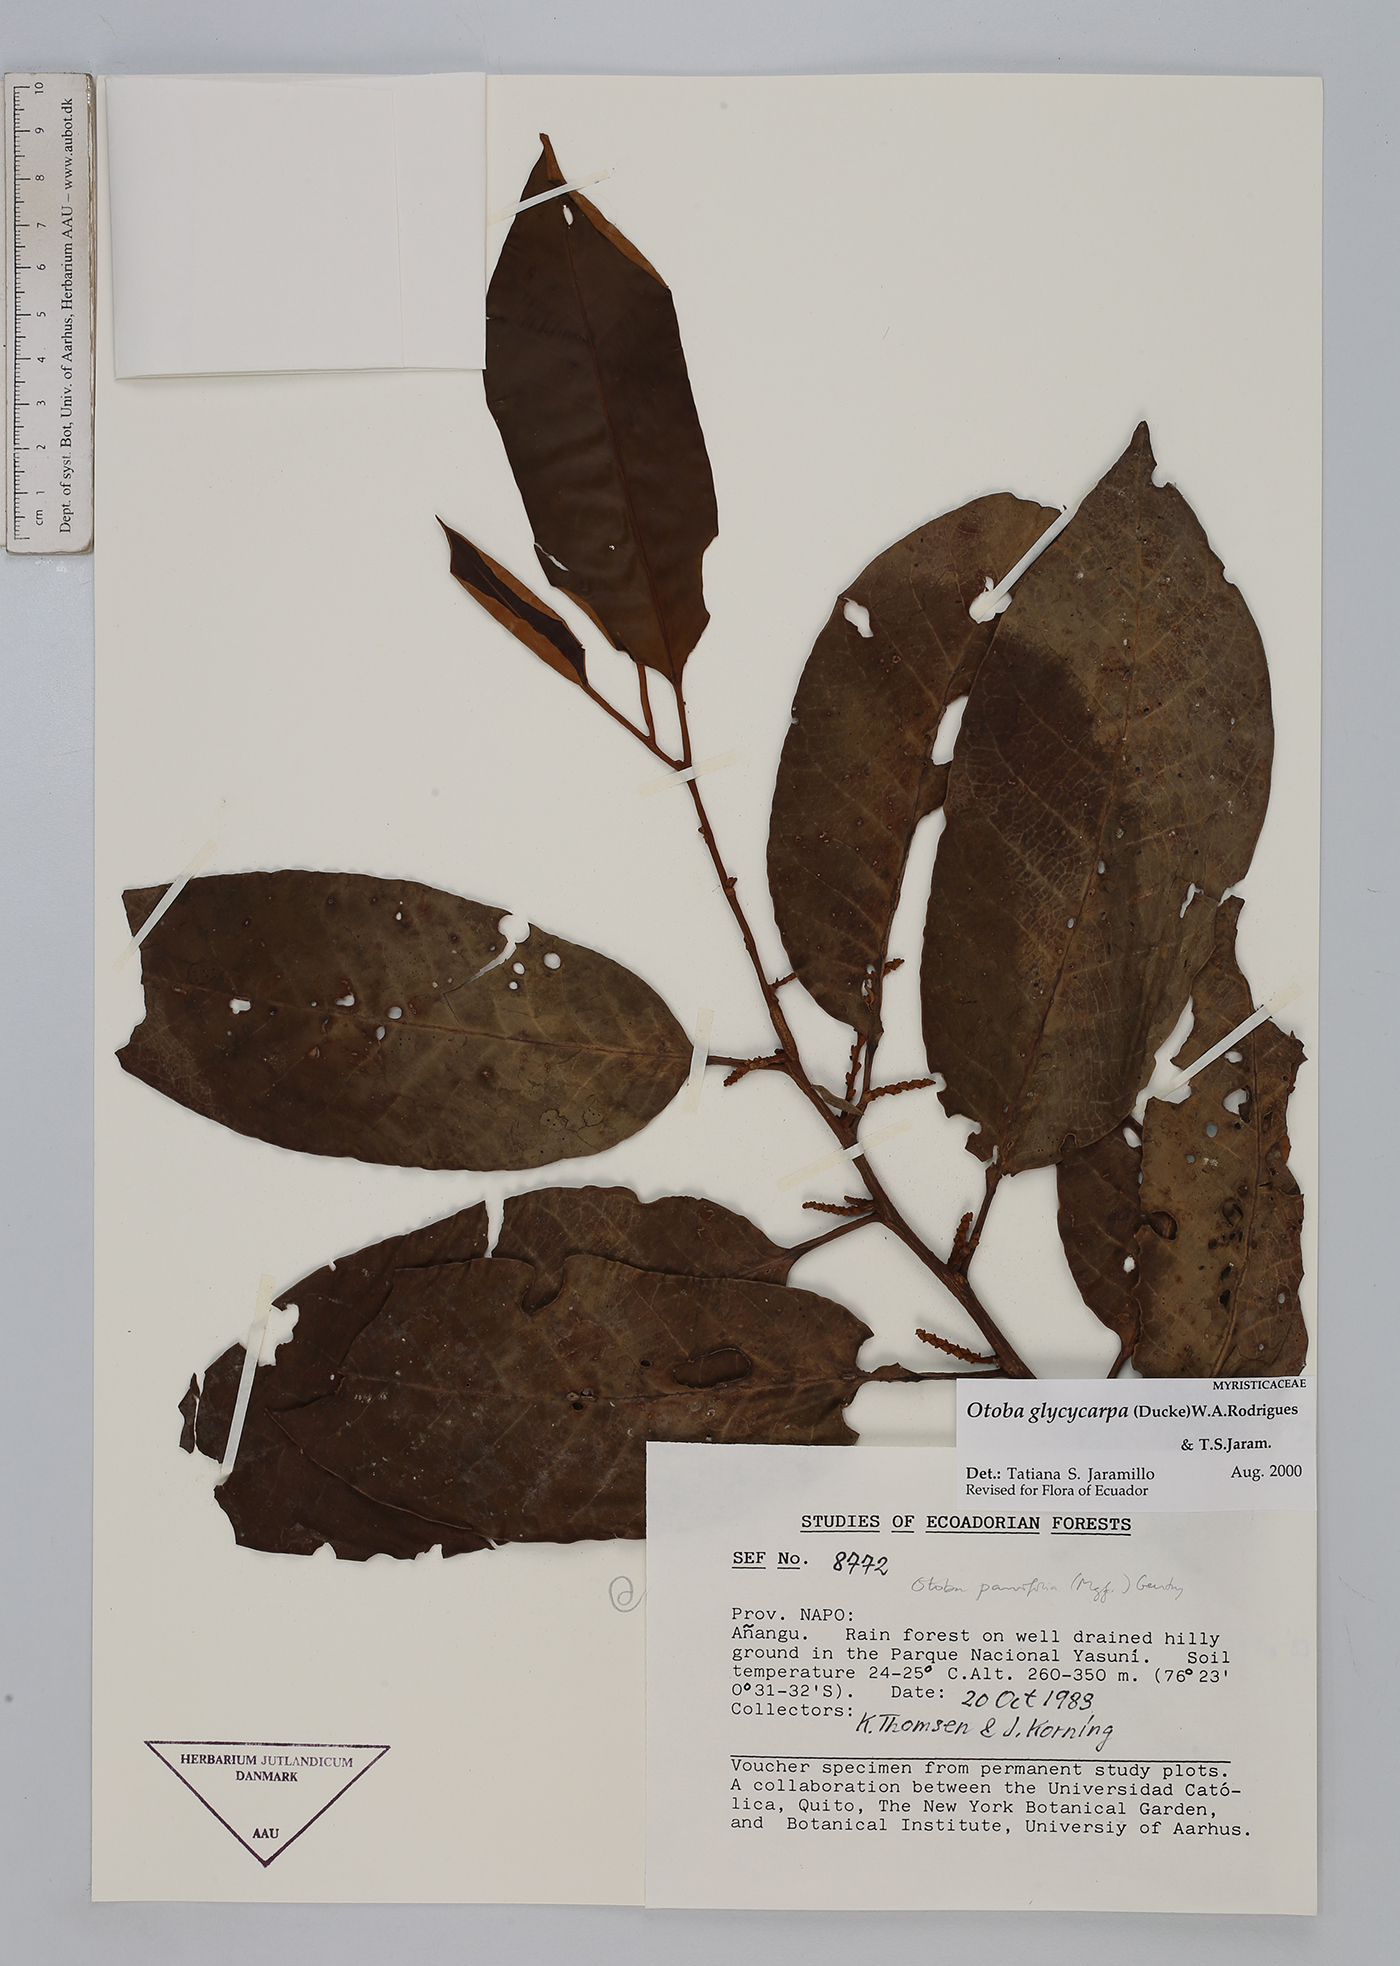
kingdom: Plantae
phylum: Tracheophyta
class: Magnoliopsida
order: Magnoliales
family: Myristicaceae
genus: Otoba
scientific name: Otoba glycycarpa
